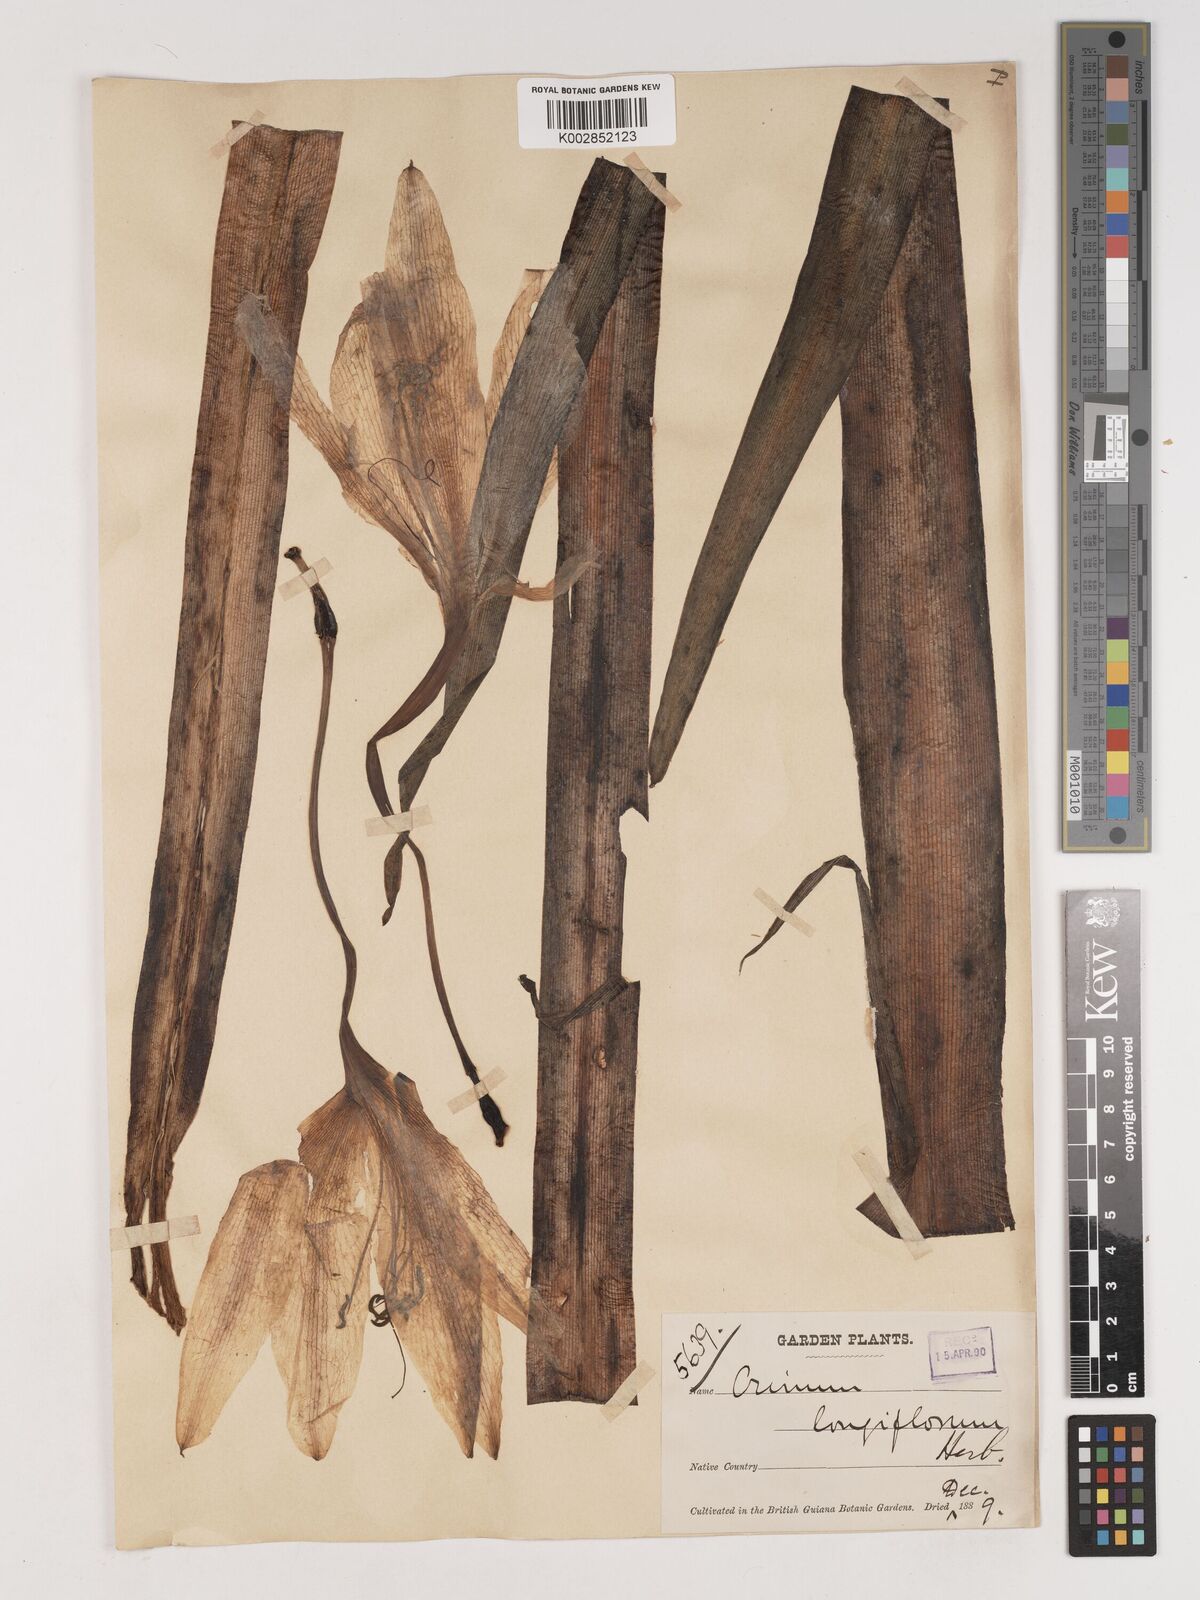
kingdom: Plantae
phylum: Tracheophyta
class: Liliopsida
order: Asparagales
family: Amaryllidaceae
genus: Crinum
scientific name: Crinum americanum
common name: Florida swamp-lily
